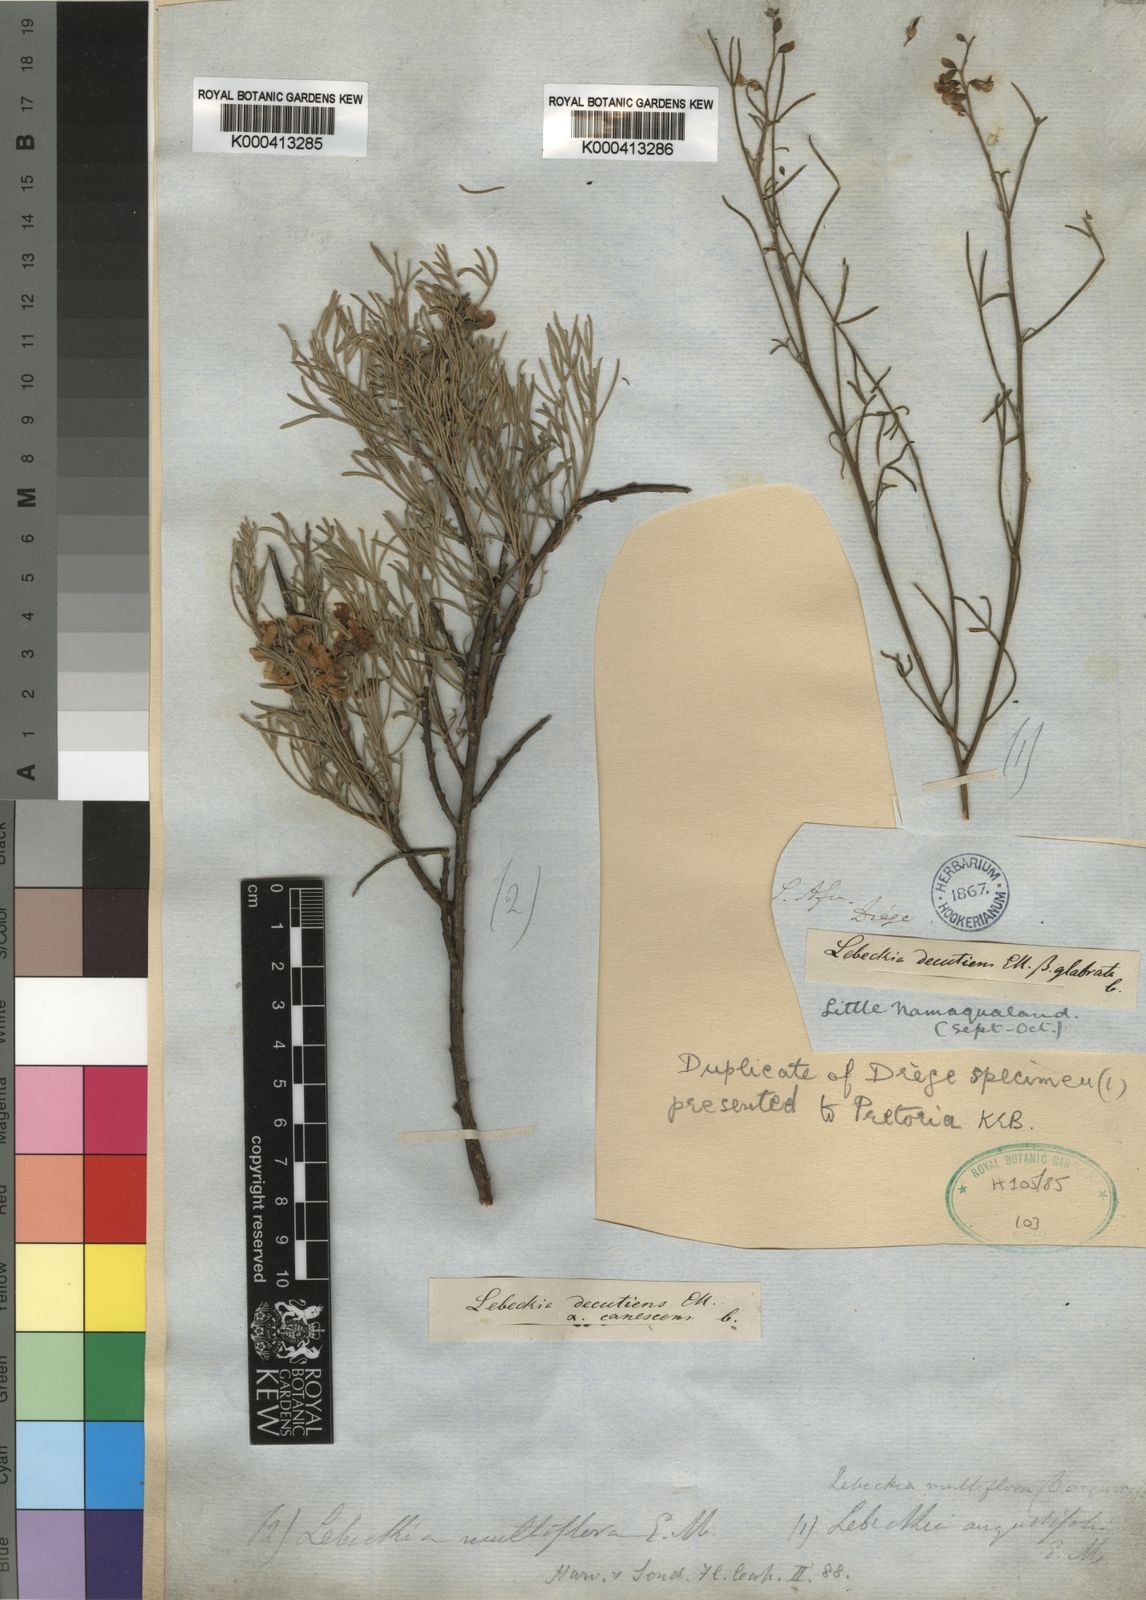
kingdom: Plantae
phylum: Tracheophyta
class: Magnoliopsida
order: Fabales
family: Fabaceae
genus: Calobota
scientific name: Calobota angustifolia
